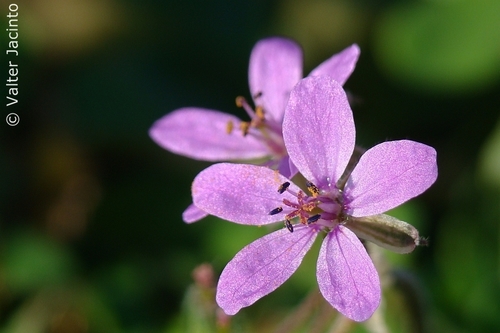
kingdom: Plantae
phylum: Tracheophyta
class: Magnoliopsida
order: Geraniales
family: Geraniaceae
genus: Erodium
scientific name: Erodium malacoides
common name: Soft stork's-bill
